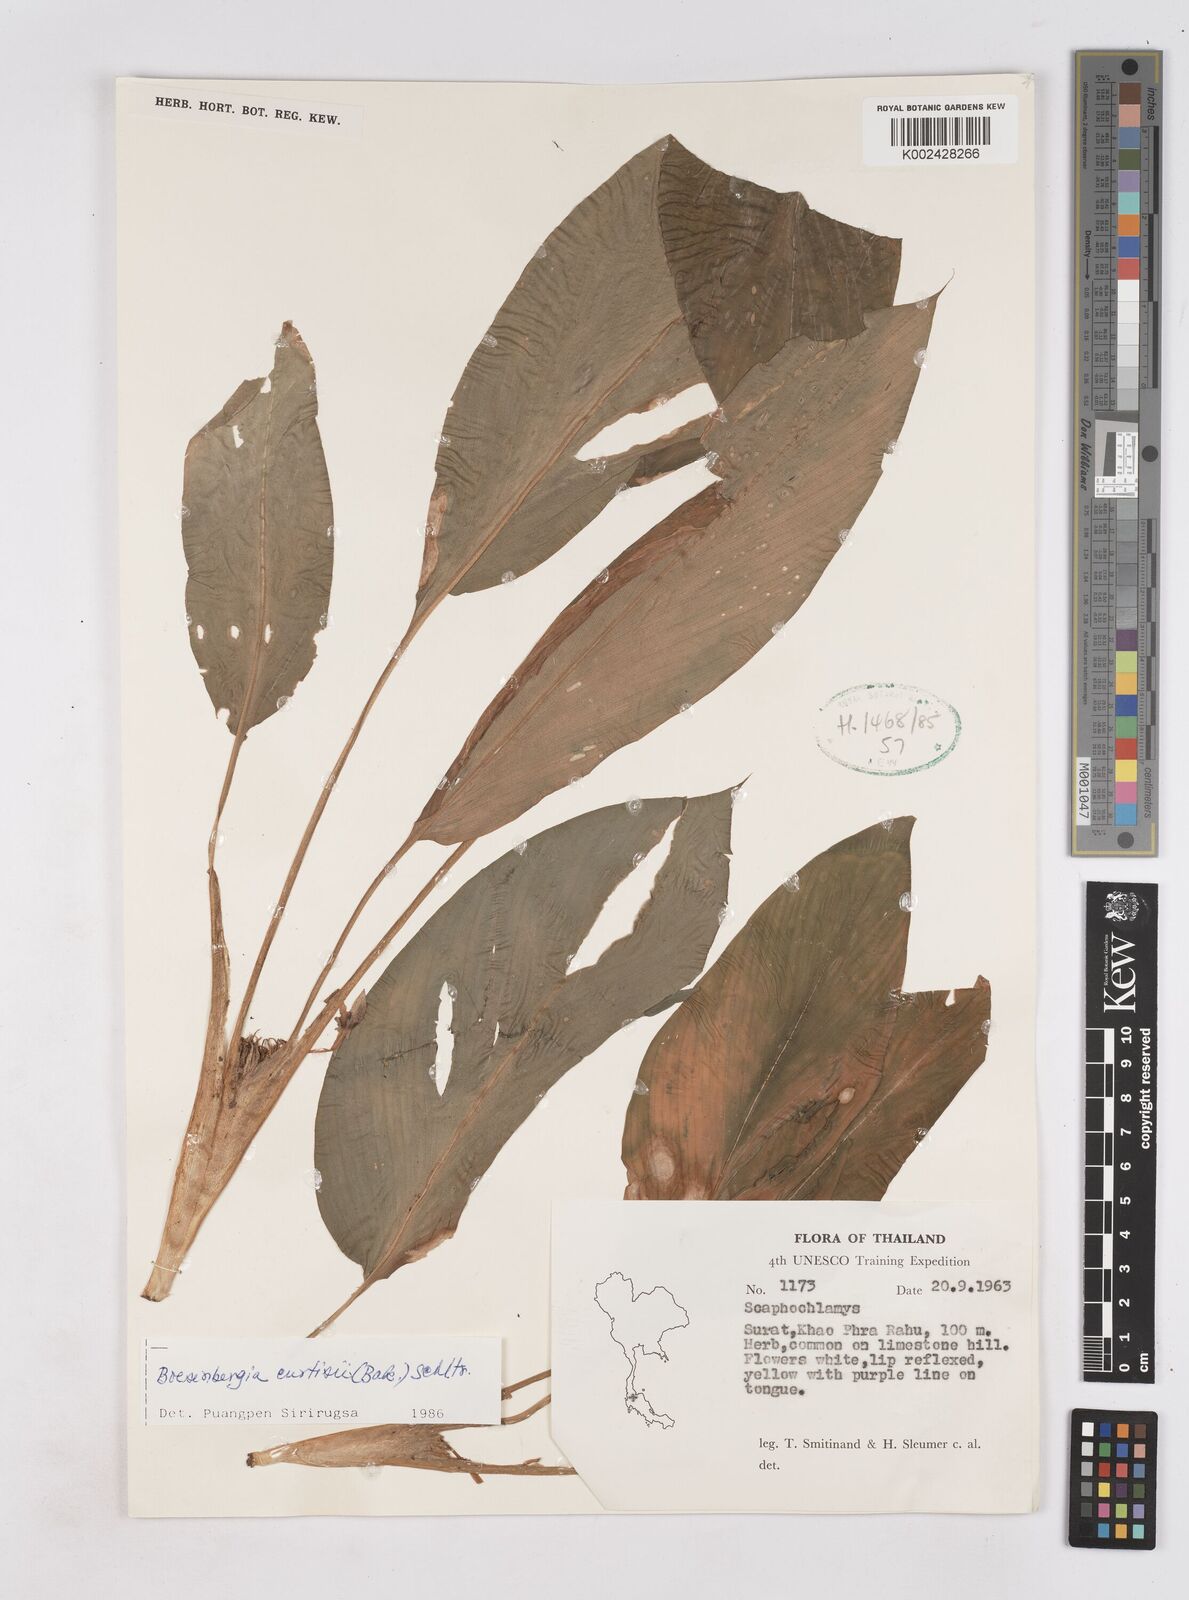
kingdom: Plantae
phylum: Tracheophyta
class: Liliopsida
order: Zingiberales
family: Zingiberaceae
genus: Boesenbergia
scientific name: Boesenbergia curtisii
